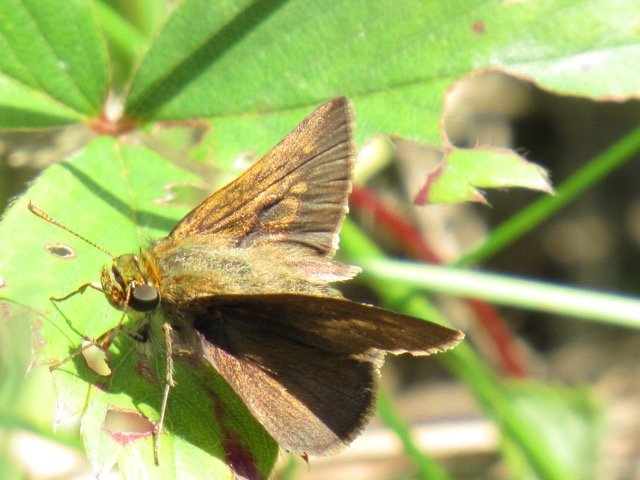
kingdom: Animalia
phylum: Arthropoda
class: Insecta
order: Lepidoptera
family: Hesperiidae
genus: Polites
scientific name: Polites egeremet
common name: Northern Broken-Dash
